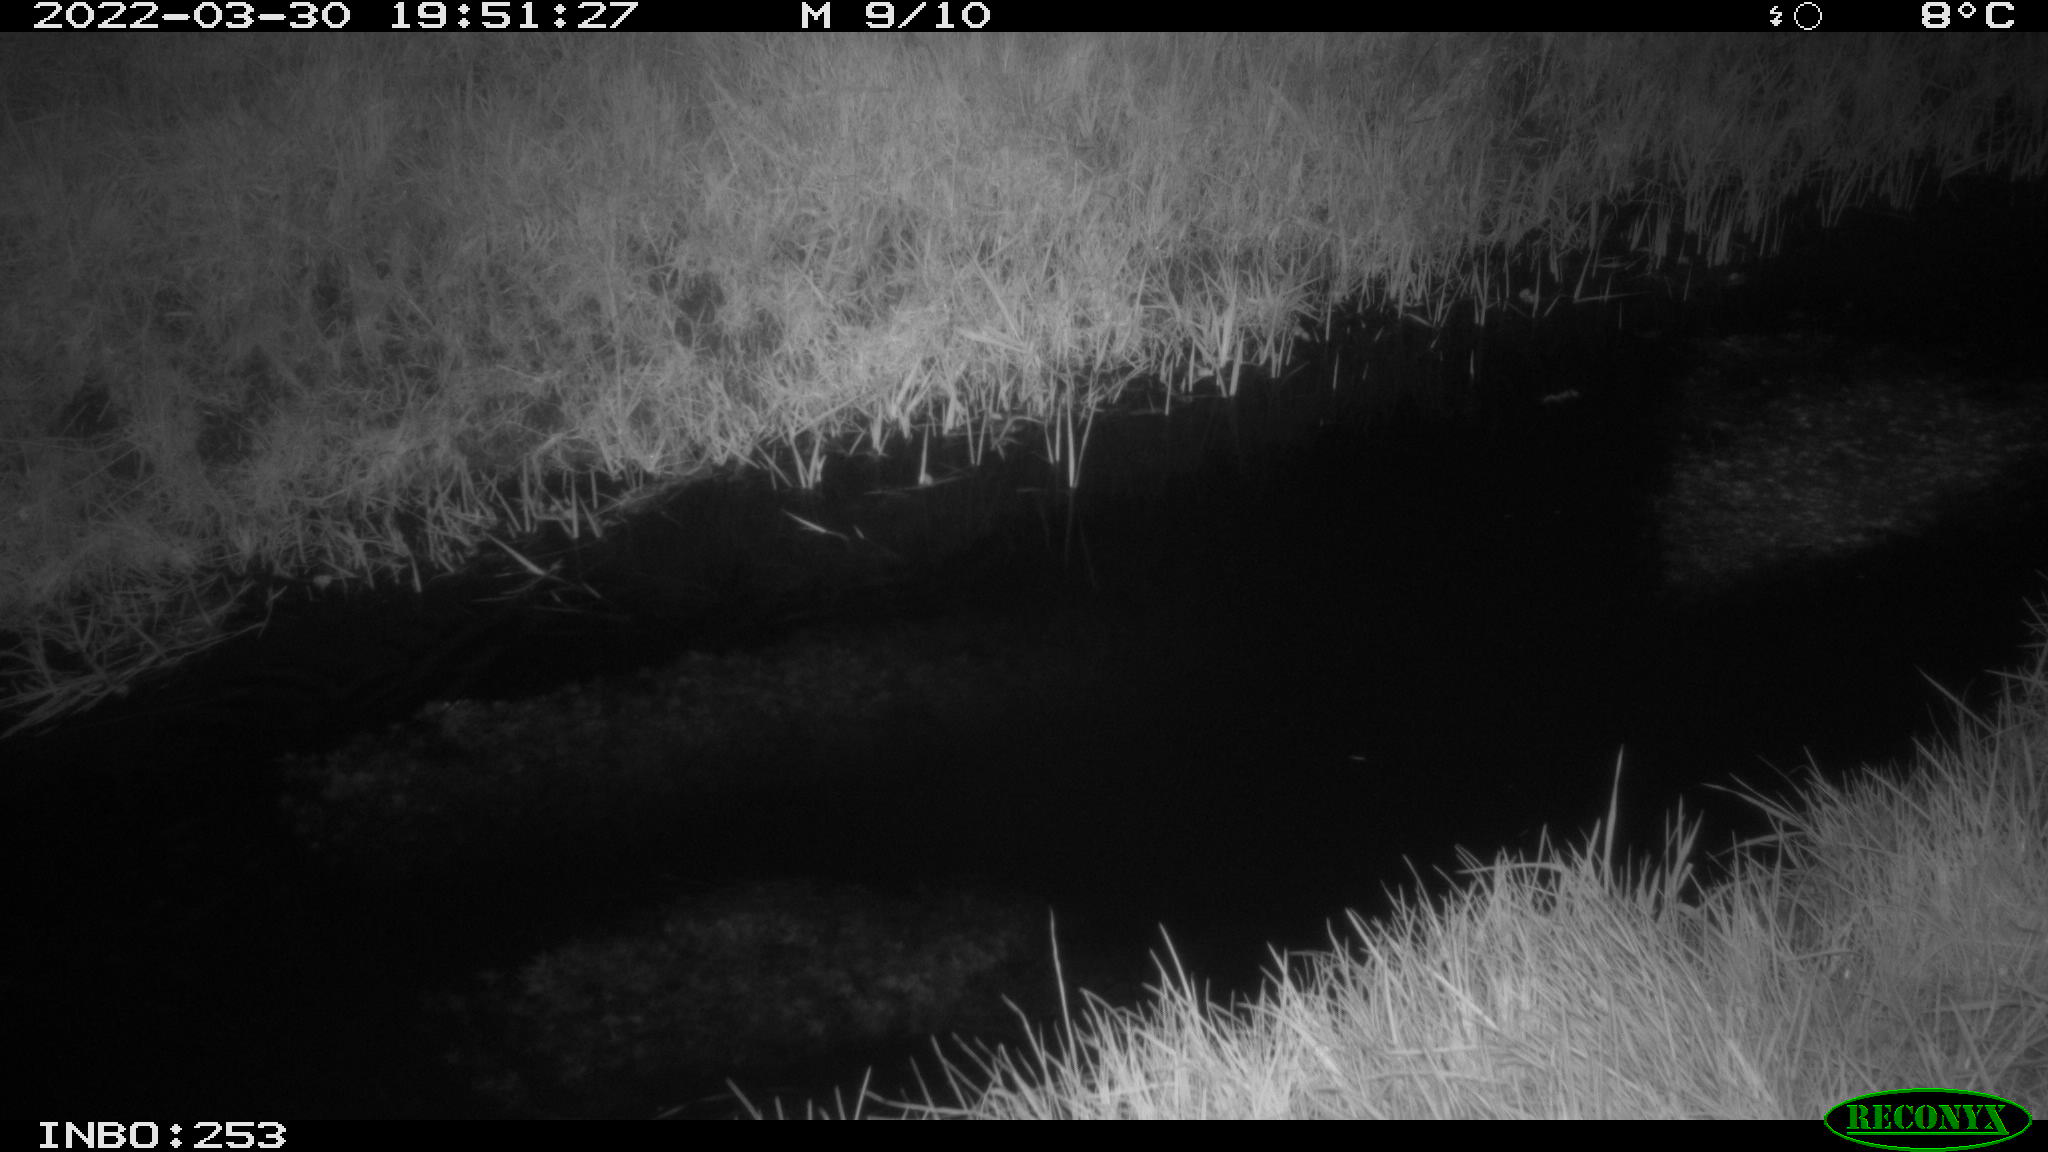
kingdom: Animalia
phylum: Chordata
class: Aves
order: Anseriformes
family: Anatidae
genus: Anas
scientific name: Anas platyrhynchos
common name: Mallard
